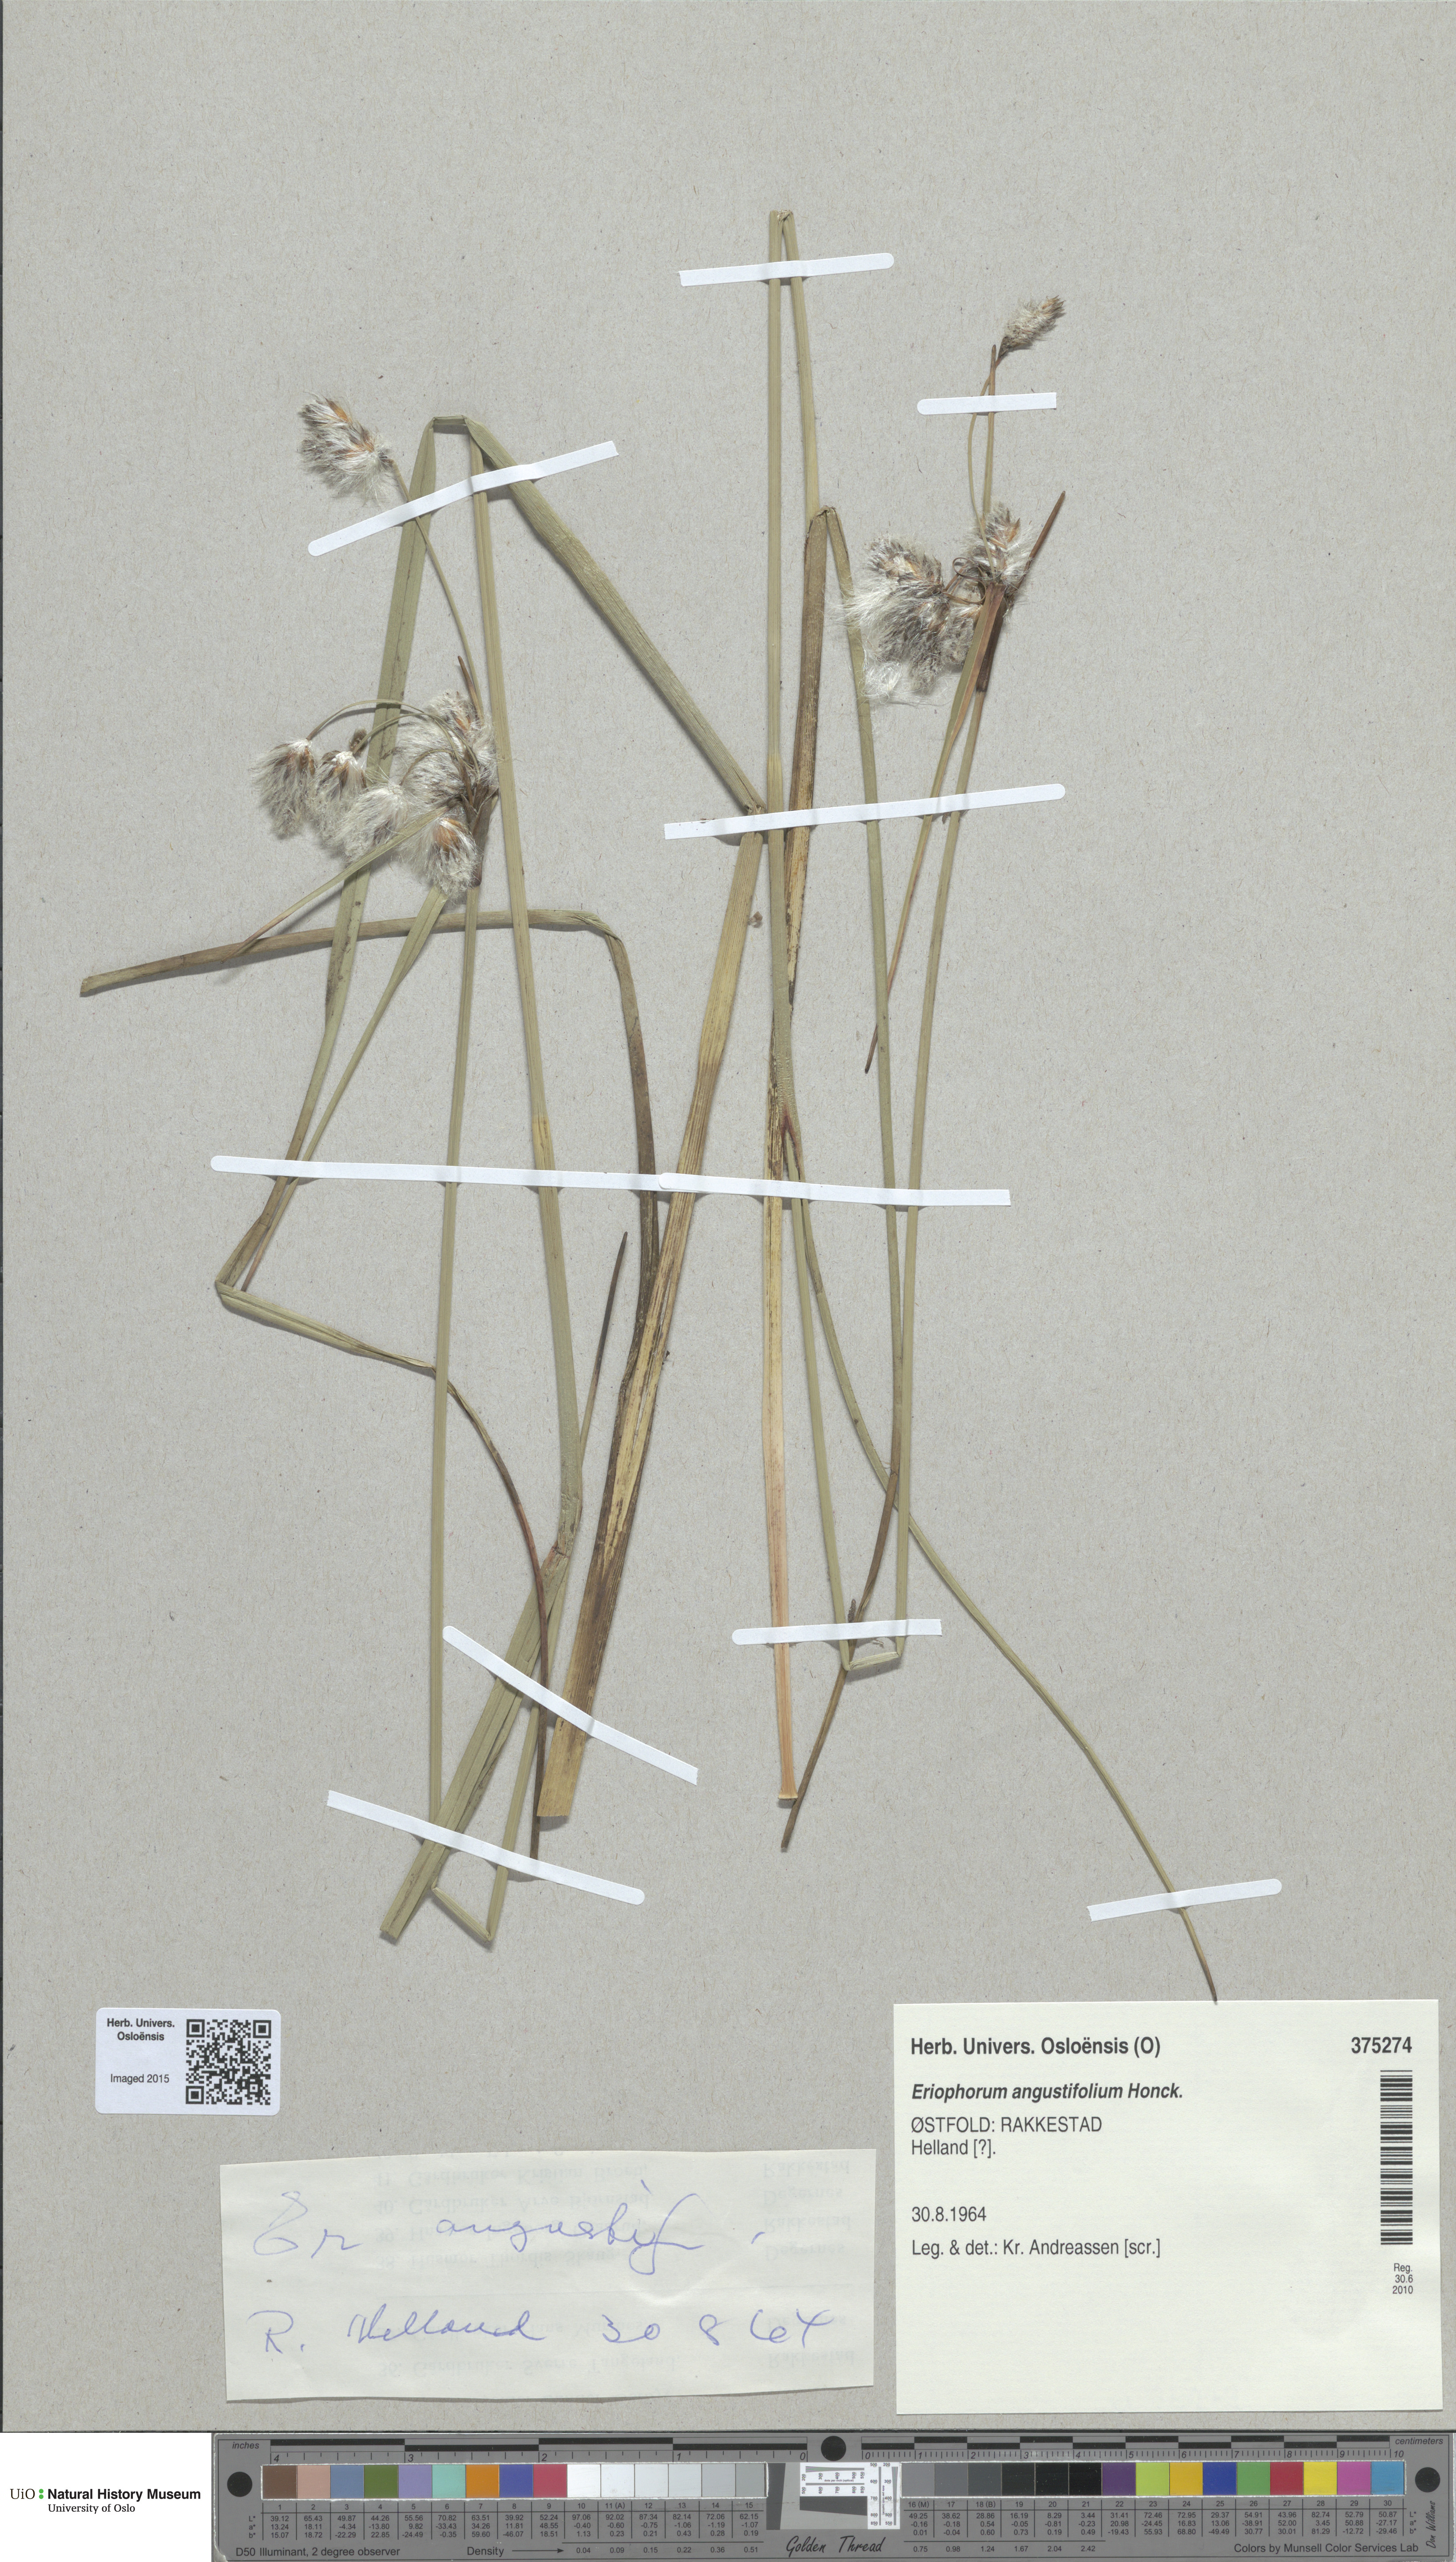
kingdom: Plantae
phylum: Tracheophyta
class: Liliopsida
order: Poales
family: Cyperaceae
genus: Eriophorum
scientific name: Eriophorum angustifolium
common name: Common cottongrass
